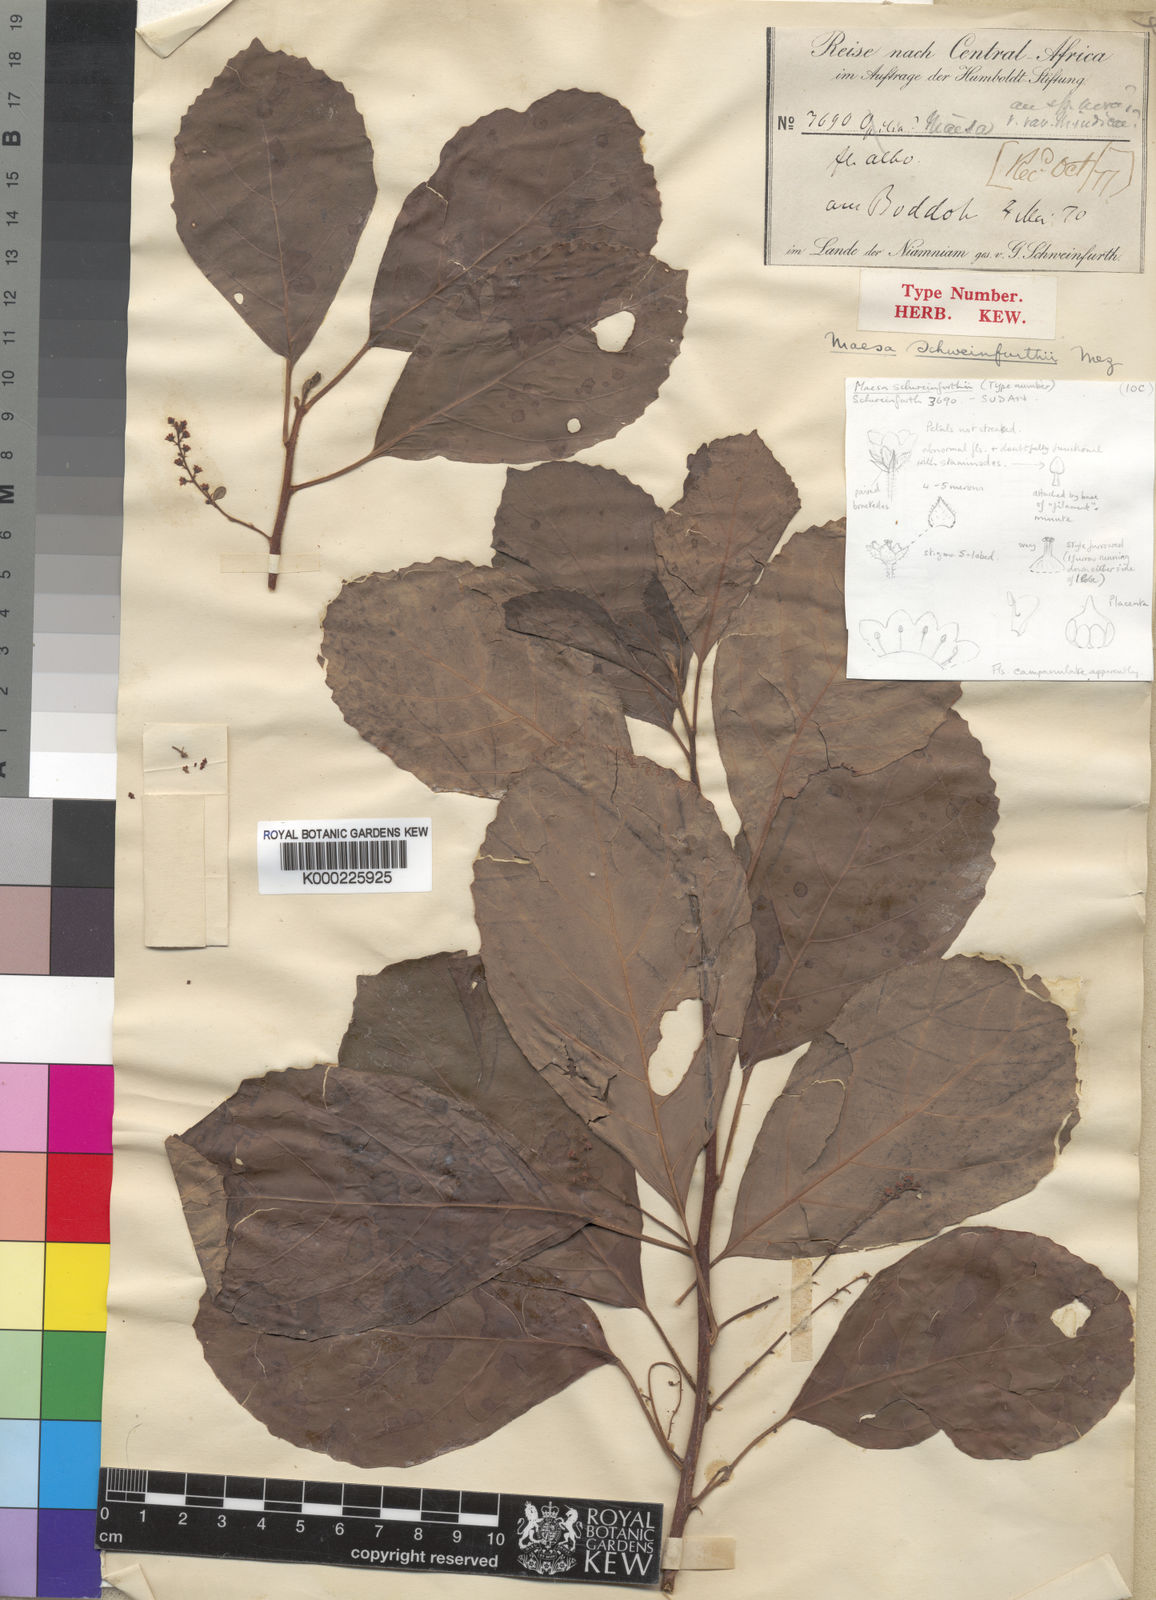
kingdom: Plantae
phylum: Tracheophyta
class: Magnoliopsida
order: Ericales
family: Primulaceae
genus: Maesa
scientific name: Maesa welwitschii
